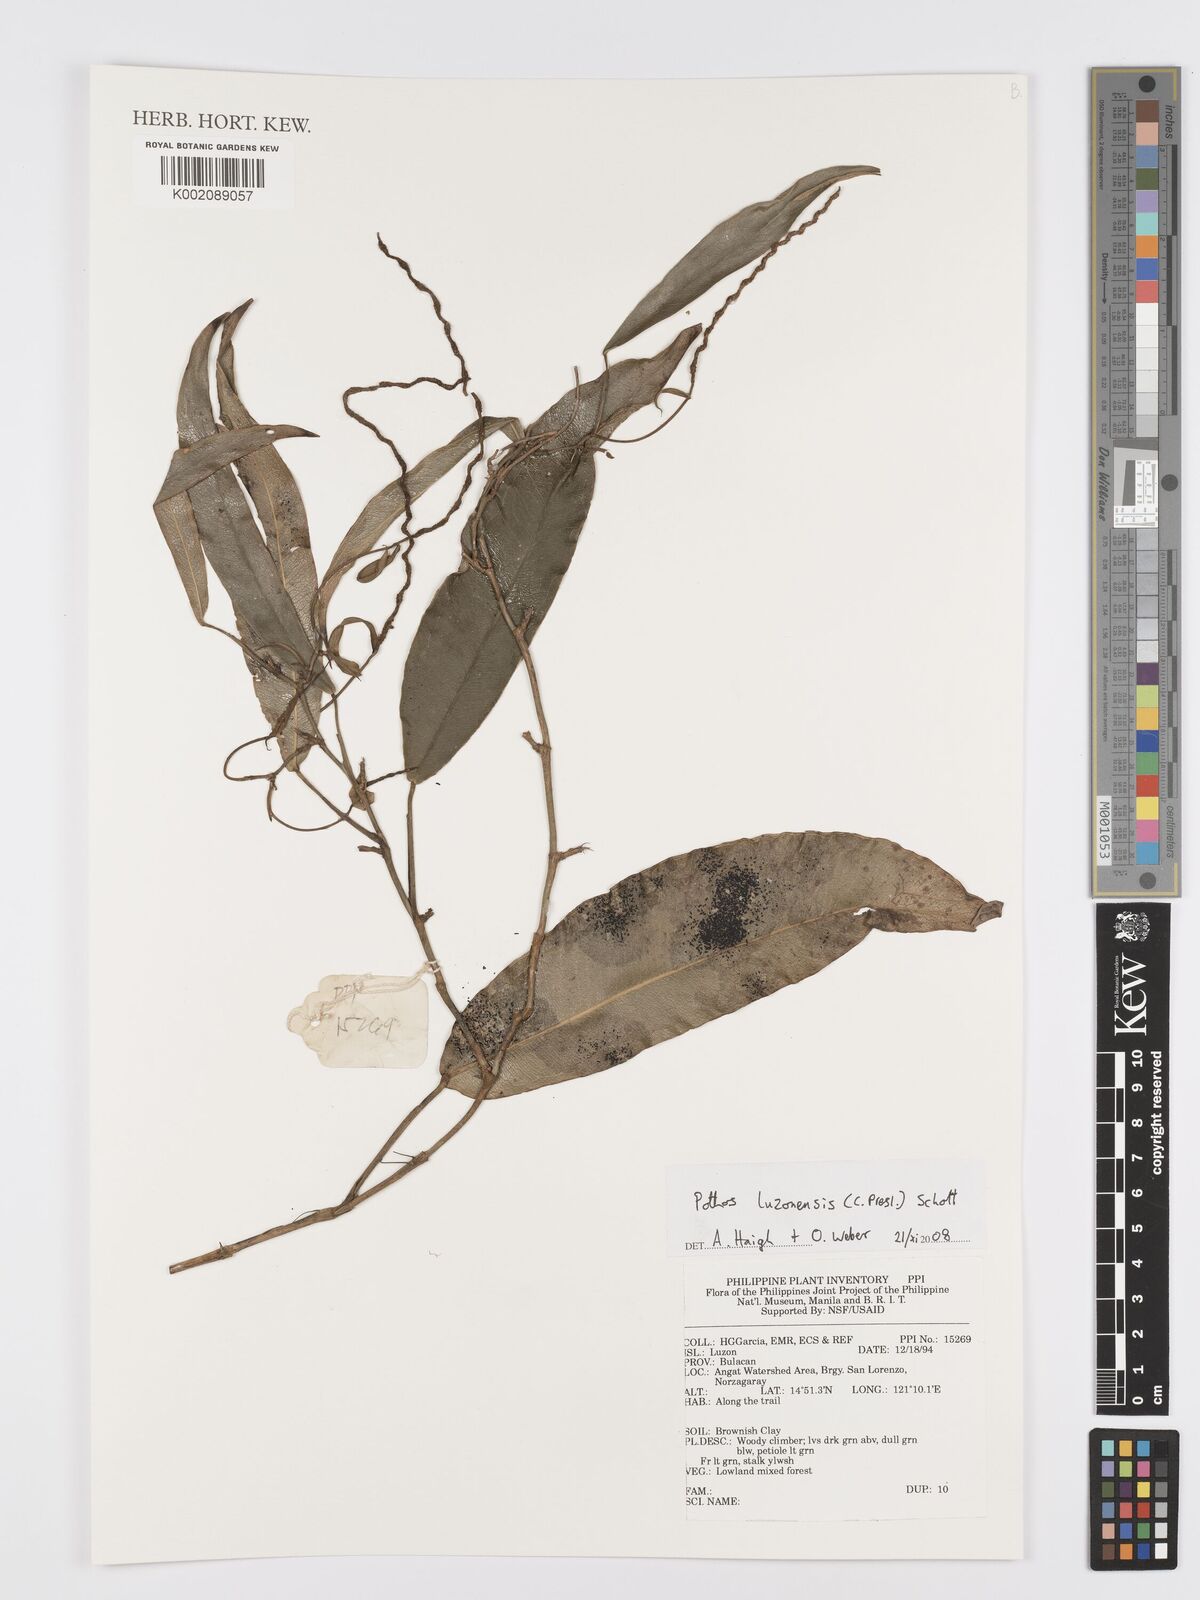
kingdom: Plantae
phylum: Tracheophyta
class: Liliopsida
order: Alismatales
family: Araceae
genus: Pothos
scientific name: Pothos luzonensis
